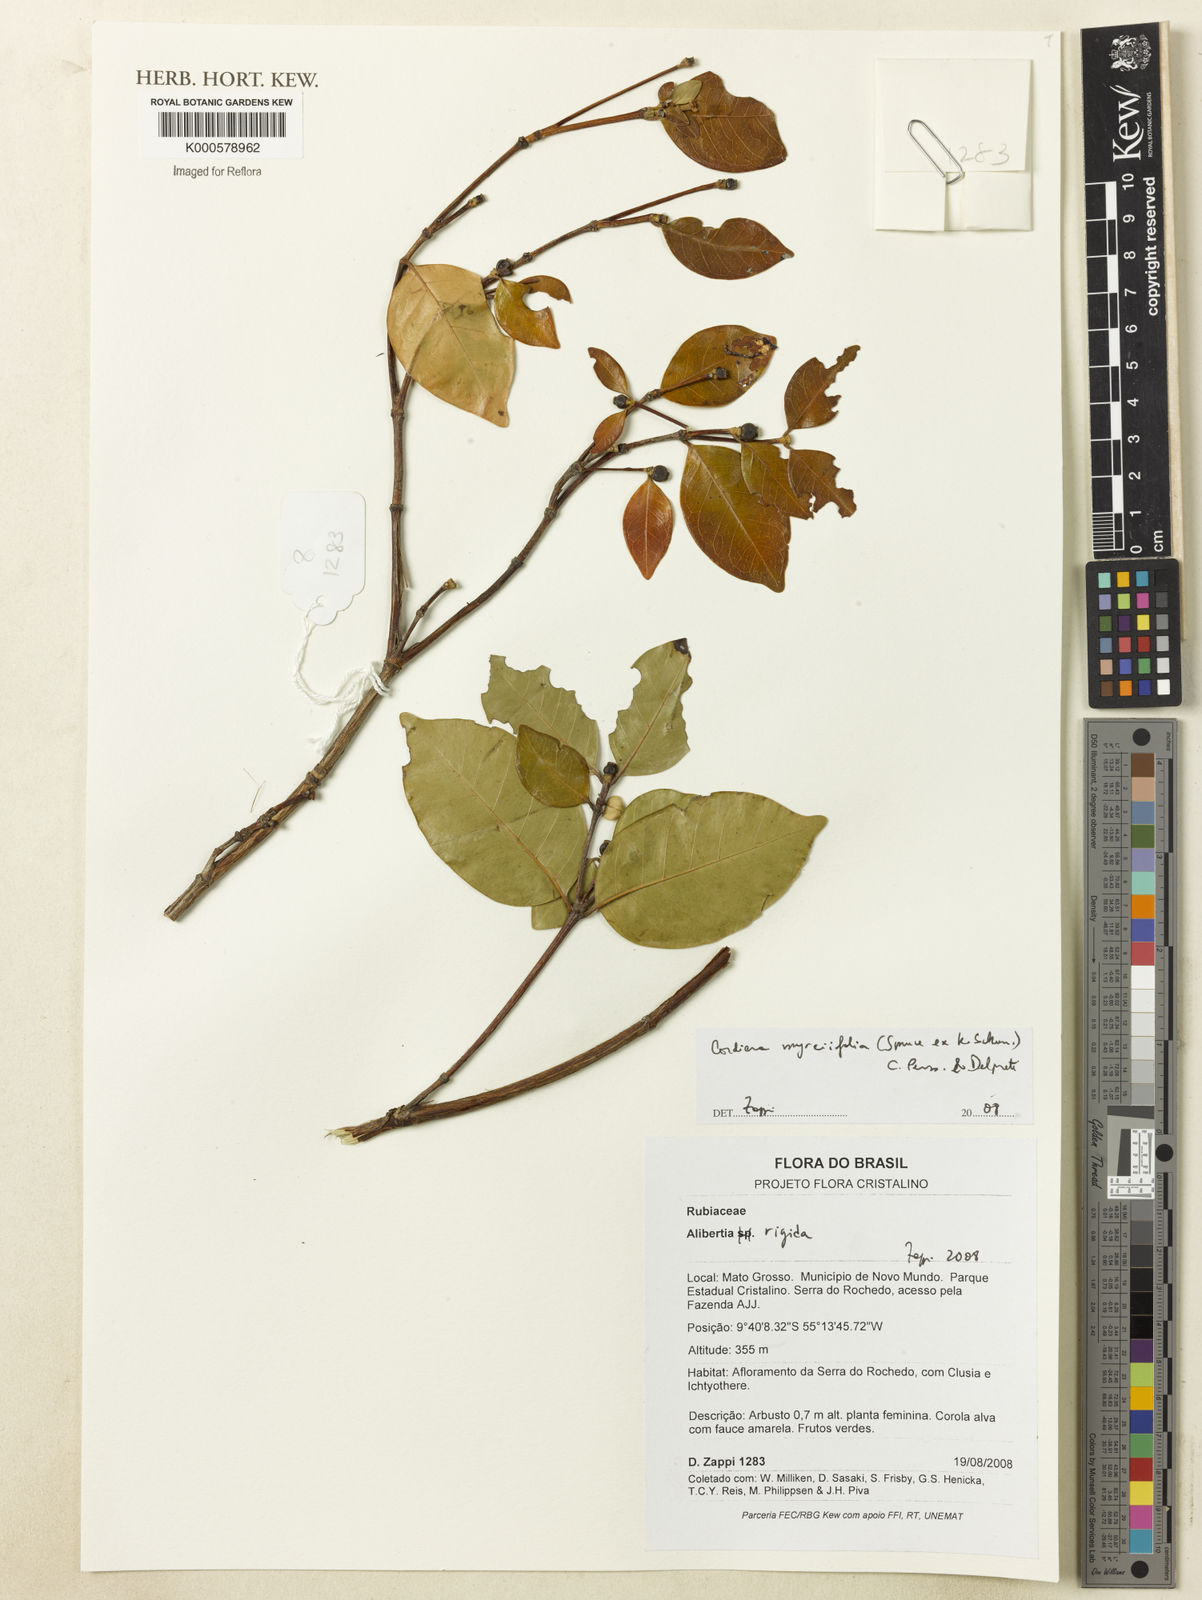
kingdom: Plantae
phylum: Tracheophyta
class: Magnoliopsida
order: Gentianales
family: Rubiaceae
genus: Cordiera
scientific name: Cordiera myrciifolia
